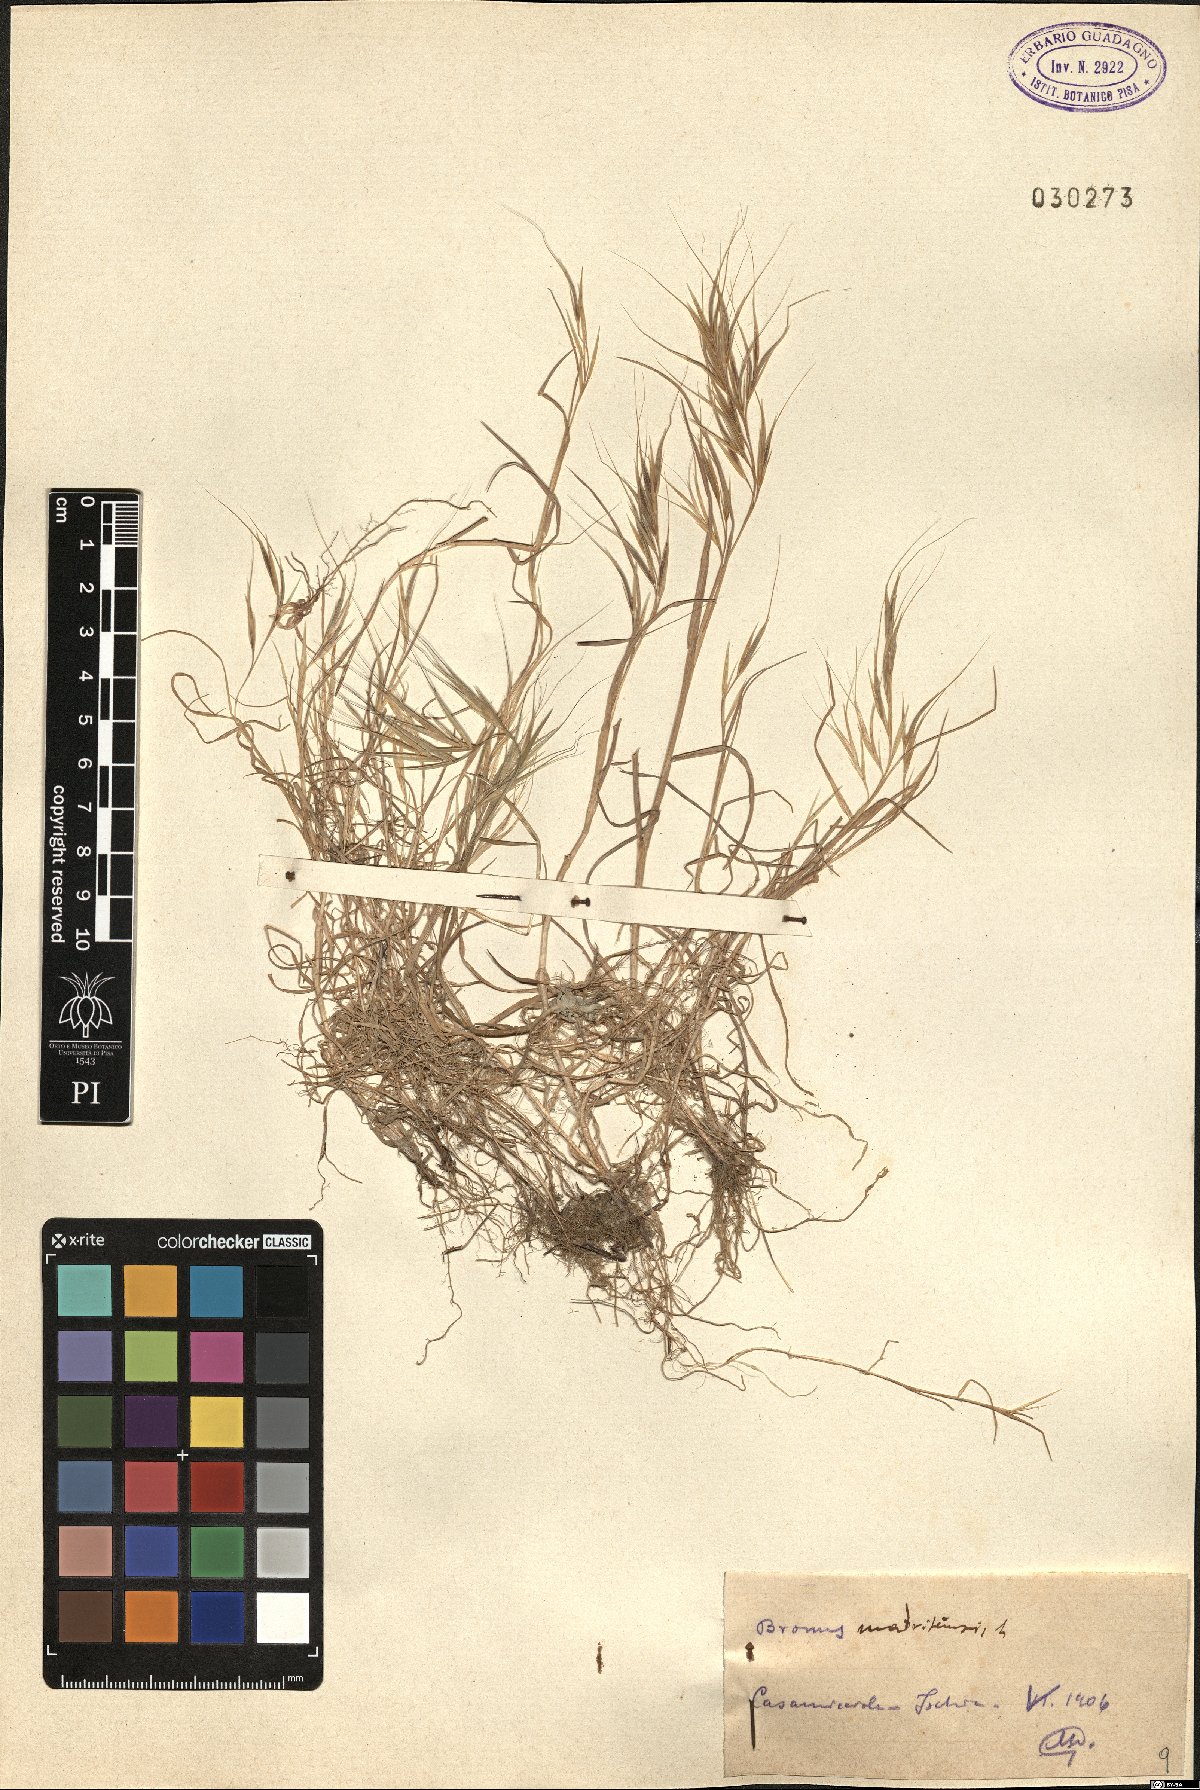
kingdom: Plantae
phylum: Tracheophyta
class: Liliopsida
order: Poales
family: Poaceae
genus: Bromus
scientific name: Bromus madritensis
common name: Compact brome
